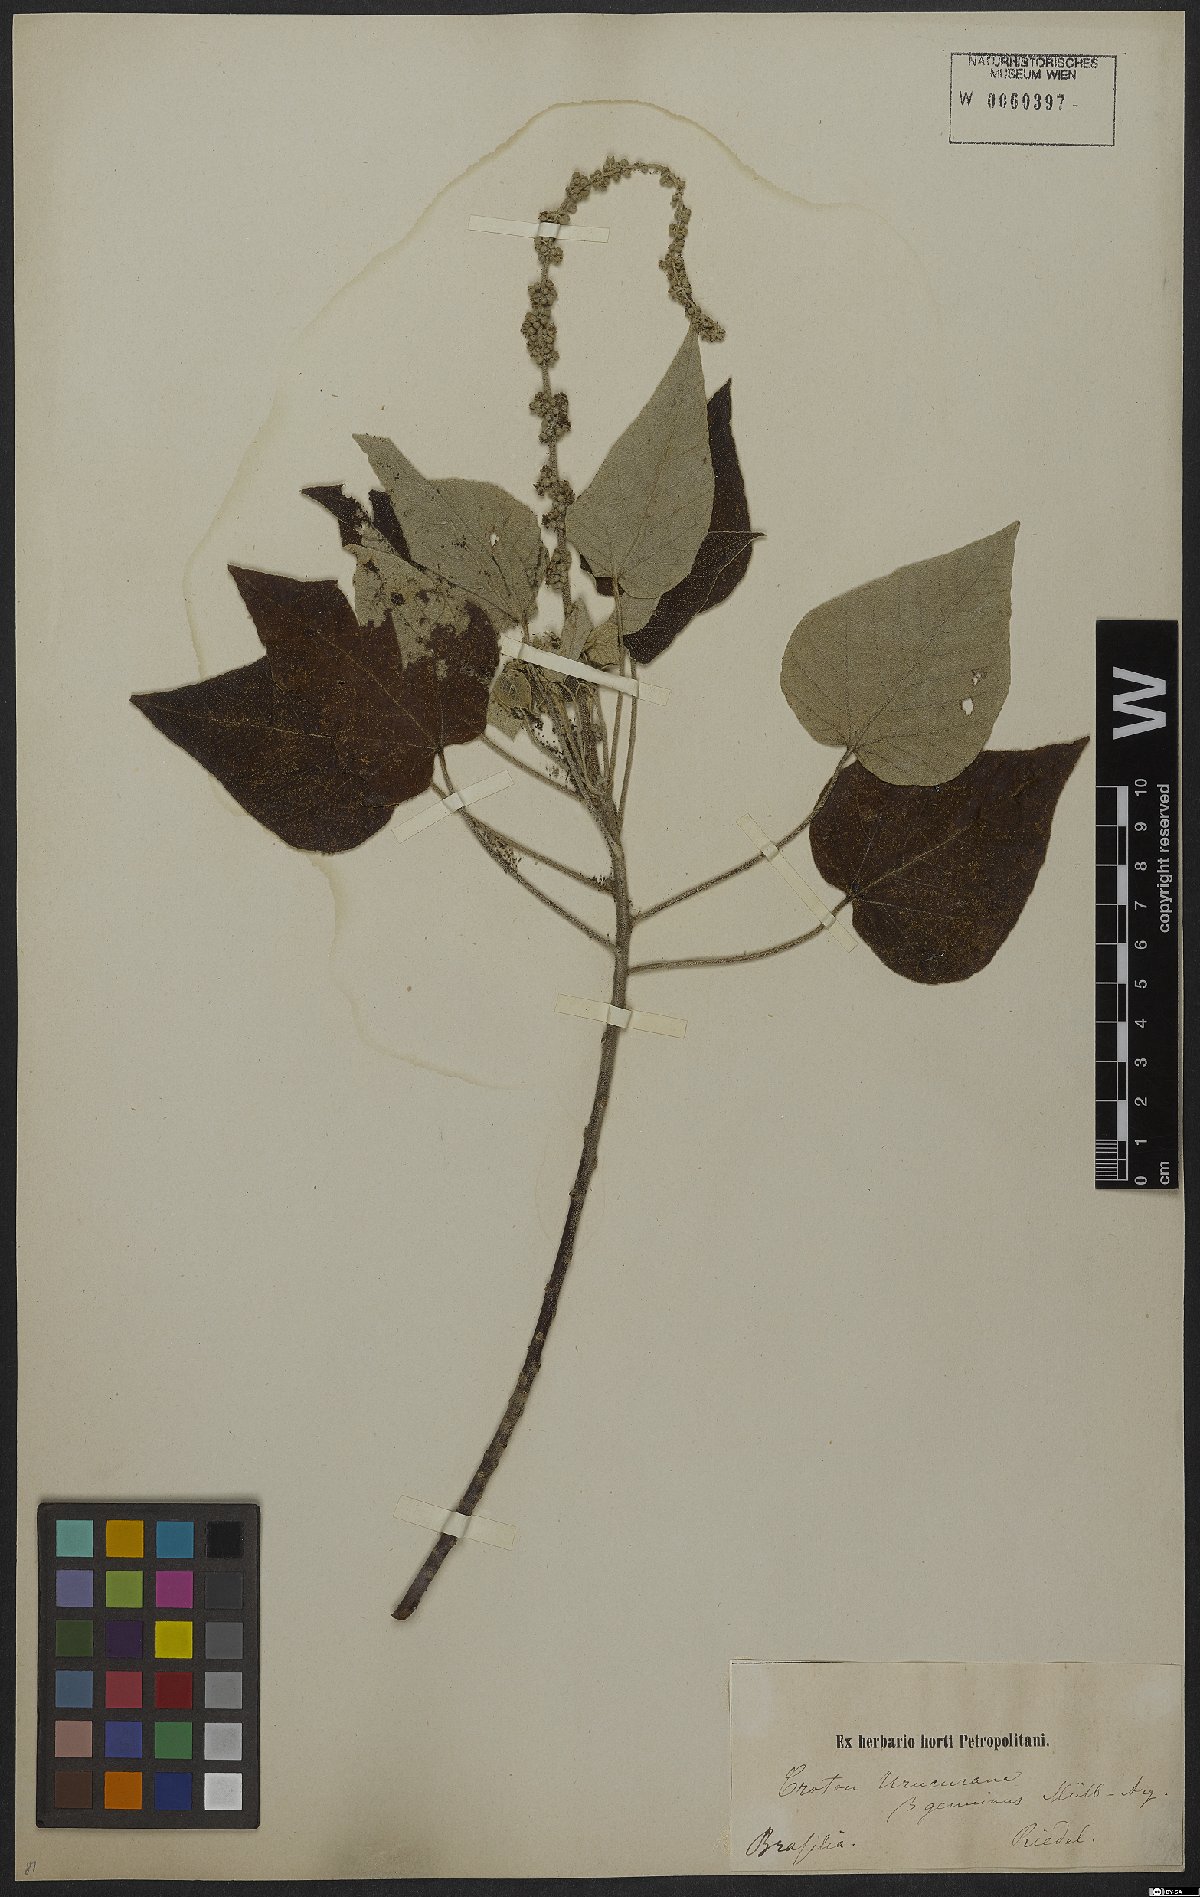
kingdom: Plantae
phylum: Tracheophyta
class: Magnoliopsida
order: Malpighiales
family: Euphorbiaceae
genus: Croton
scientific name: Croton urucurana
